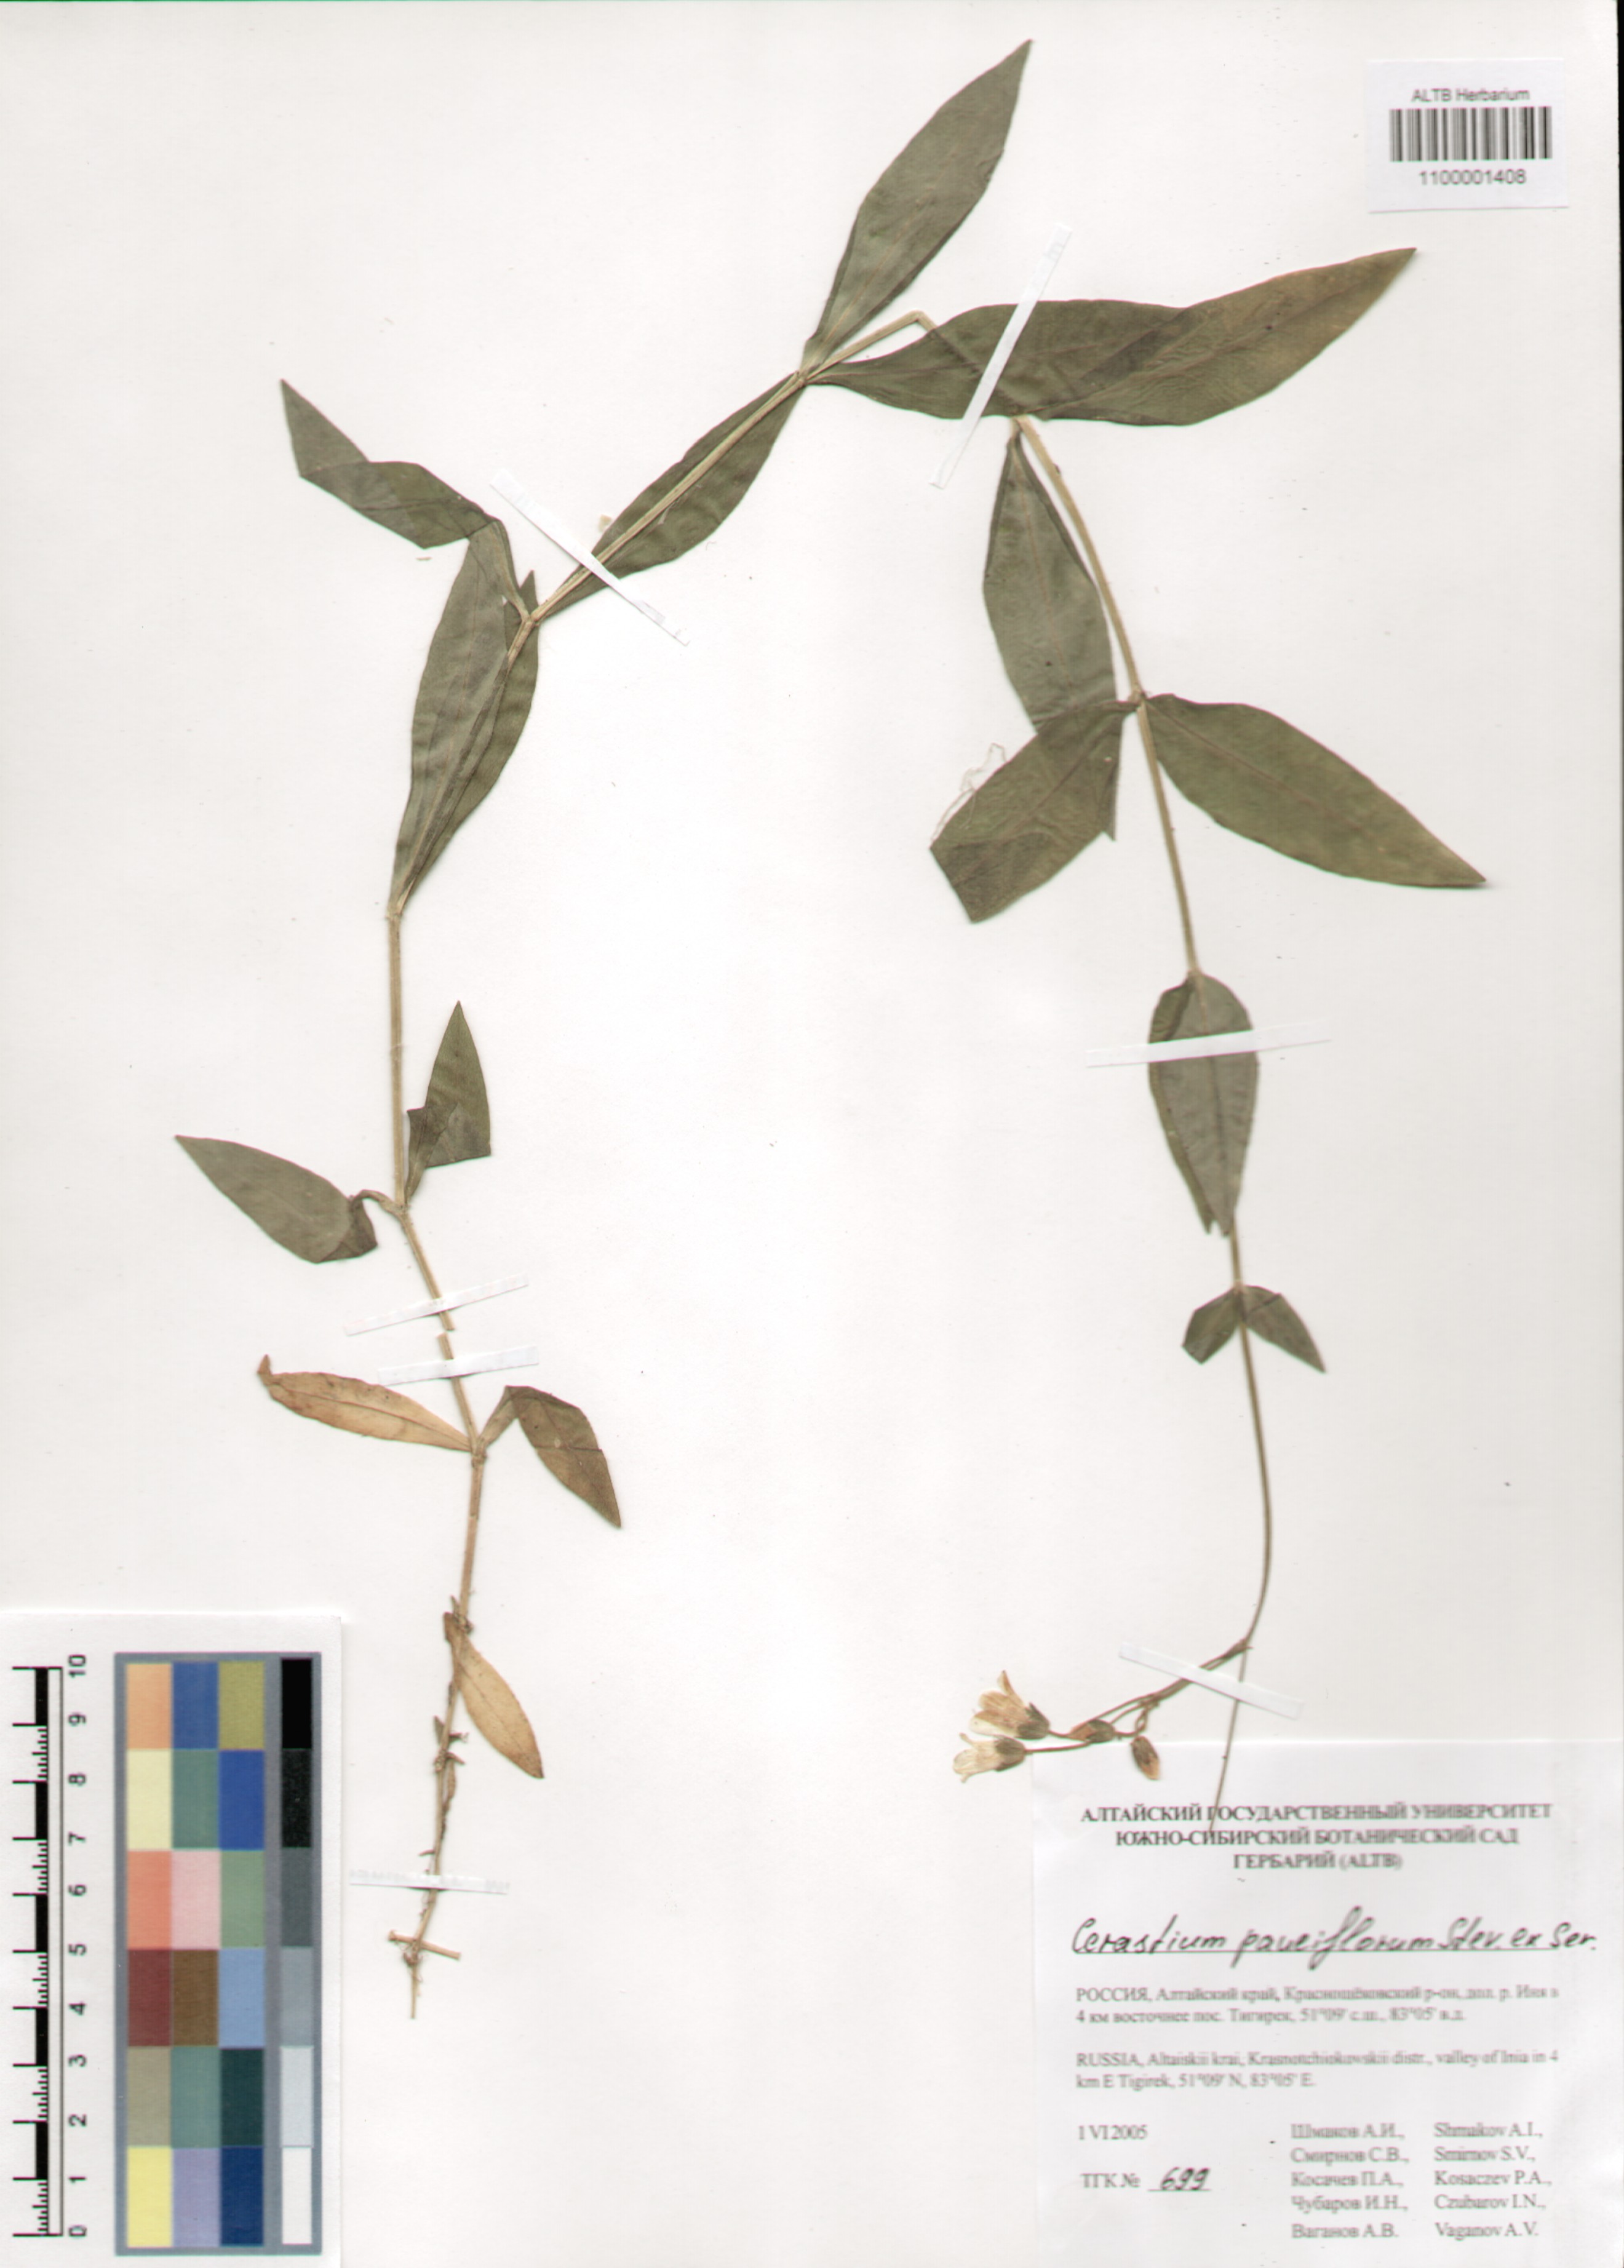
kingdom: Plantae
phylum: Tracheophyta
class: Magnoliopsida
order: Caryophyllales
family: Caryophyllaceae
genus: Cerastium
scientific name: Cerastium pauciflorum
